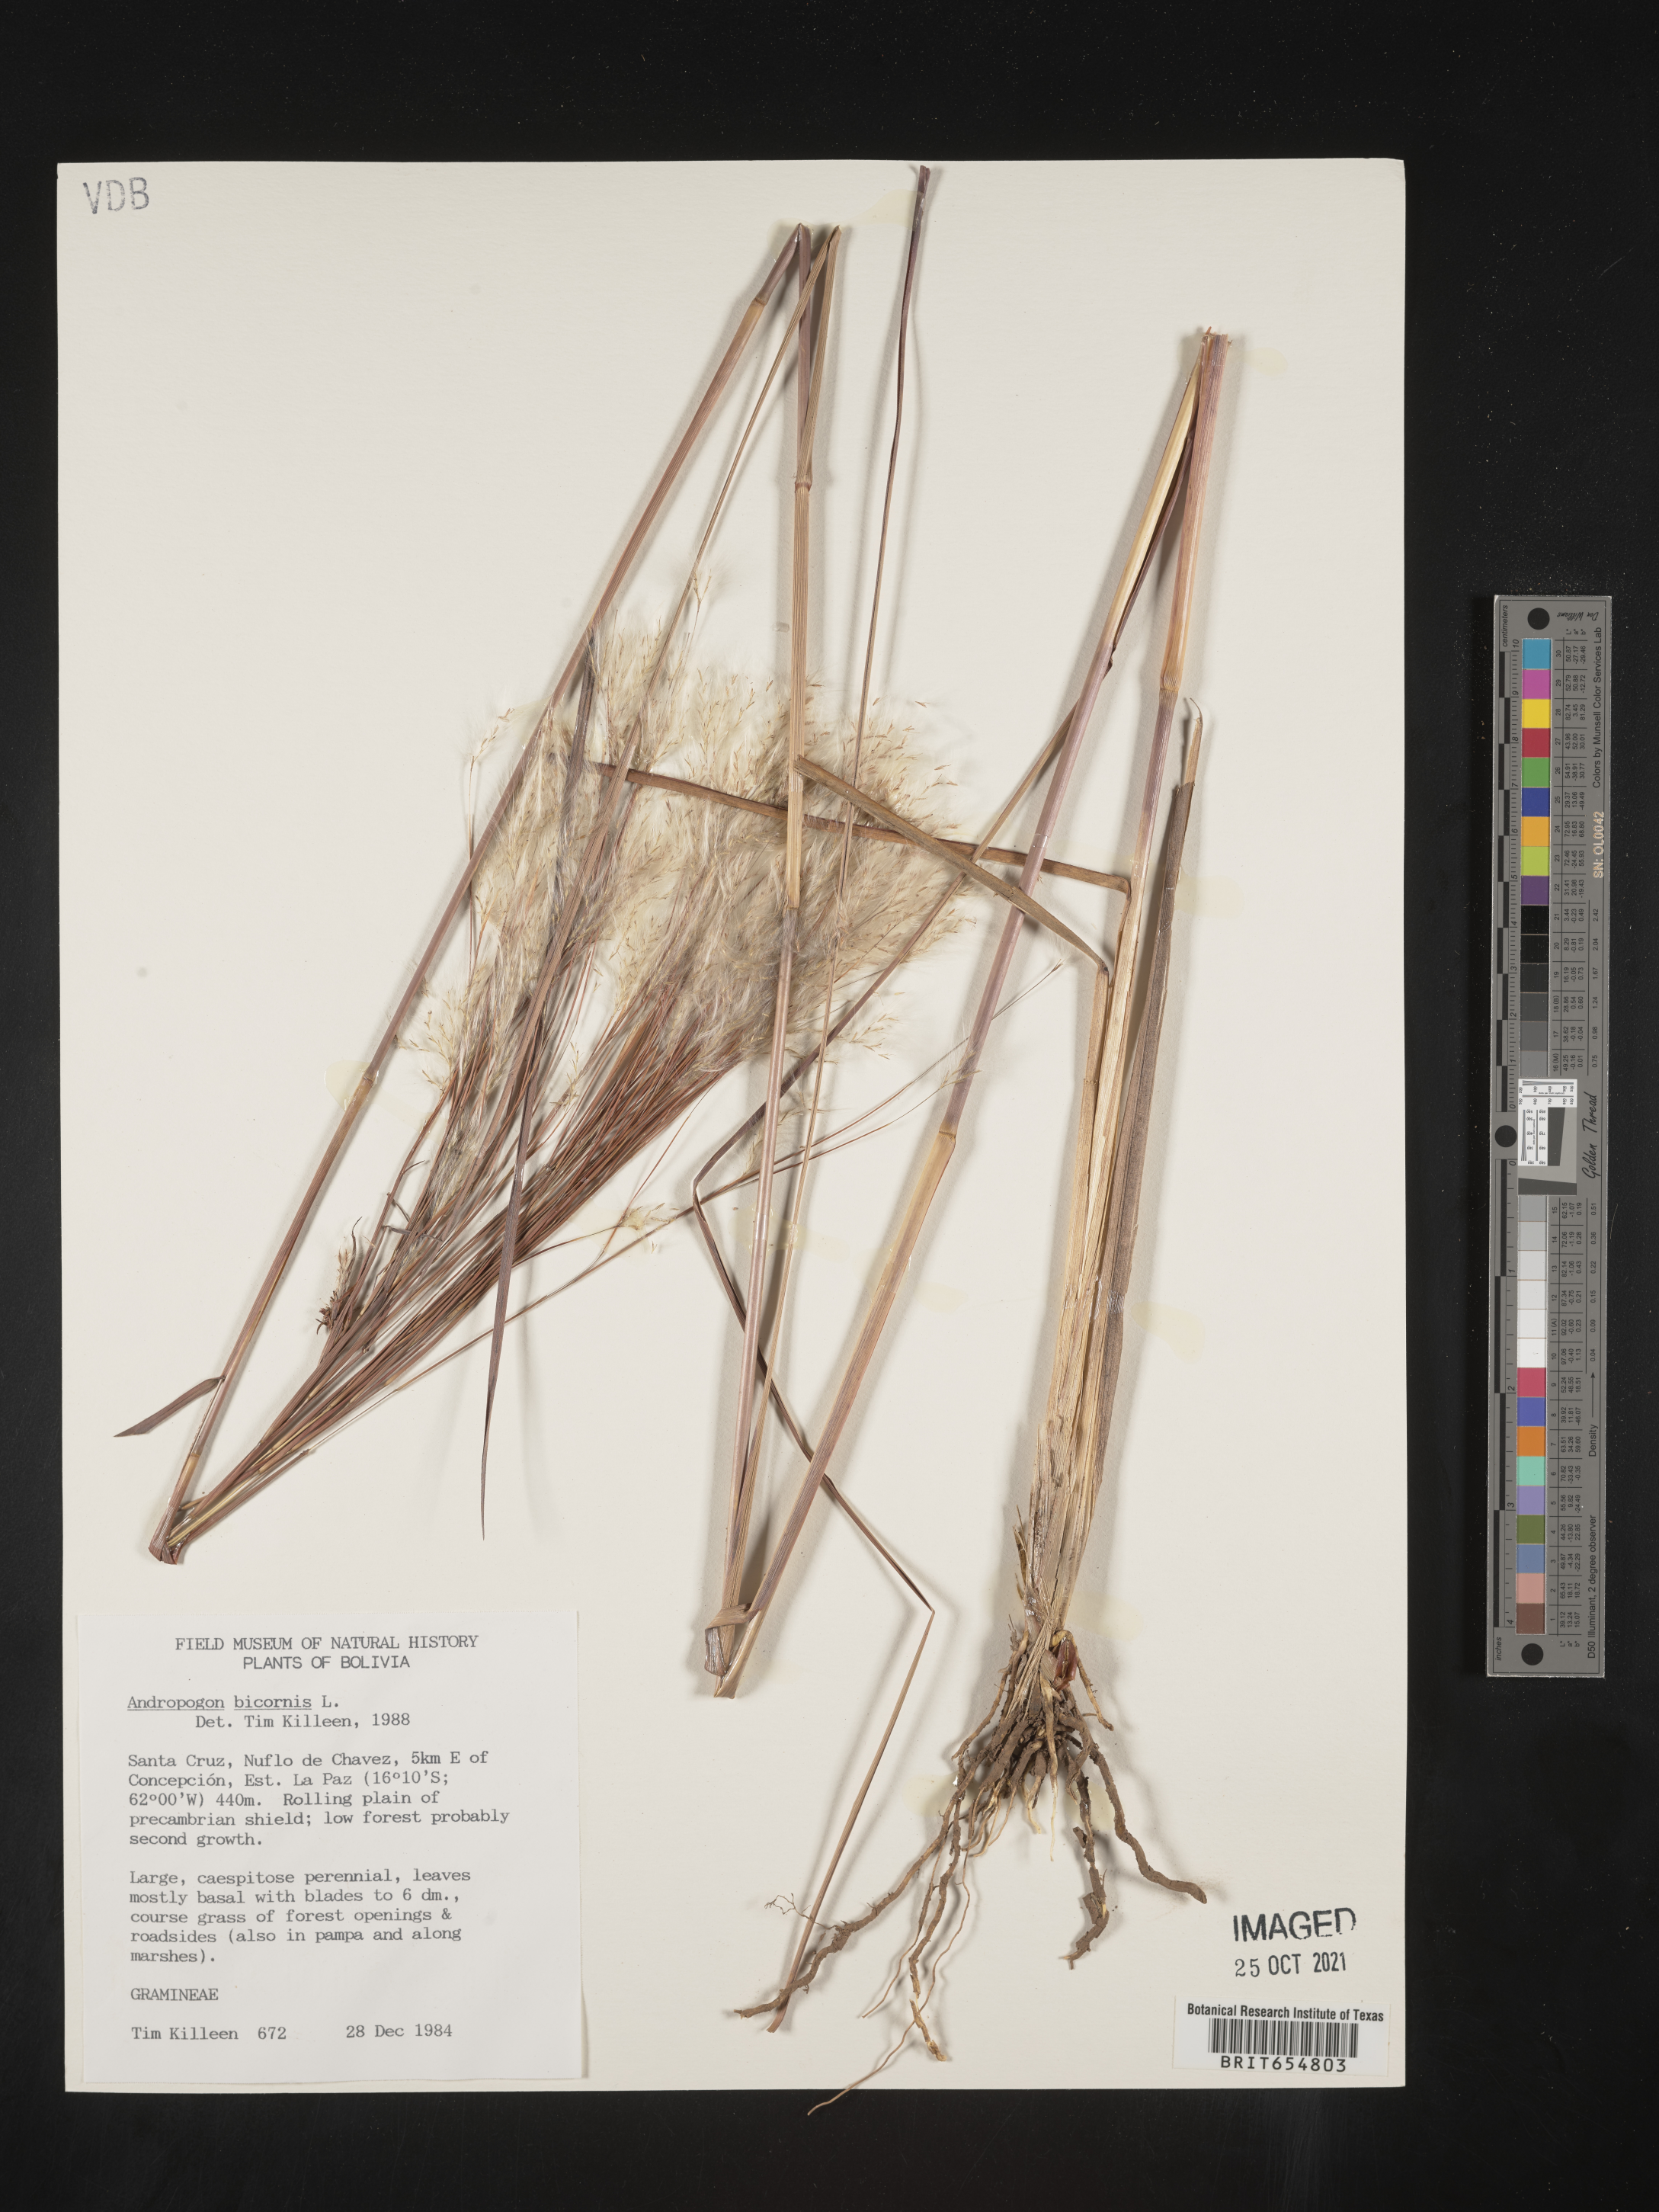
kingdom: Plantae
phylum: Tracheophyta
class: Liliopsida
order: Poales
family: Poaceae
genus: Andropogon
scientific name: Andropogon
